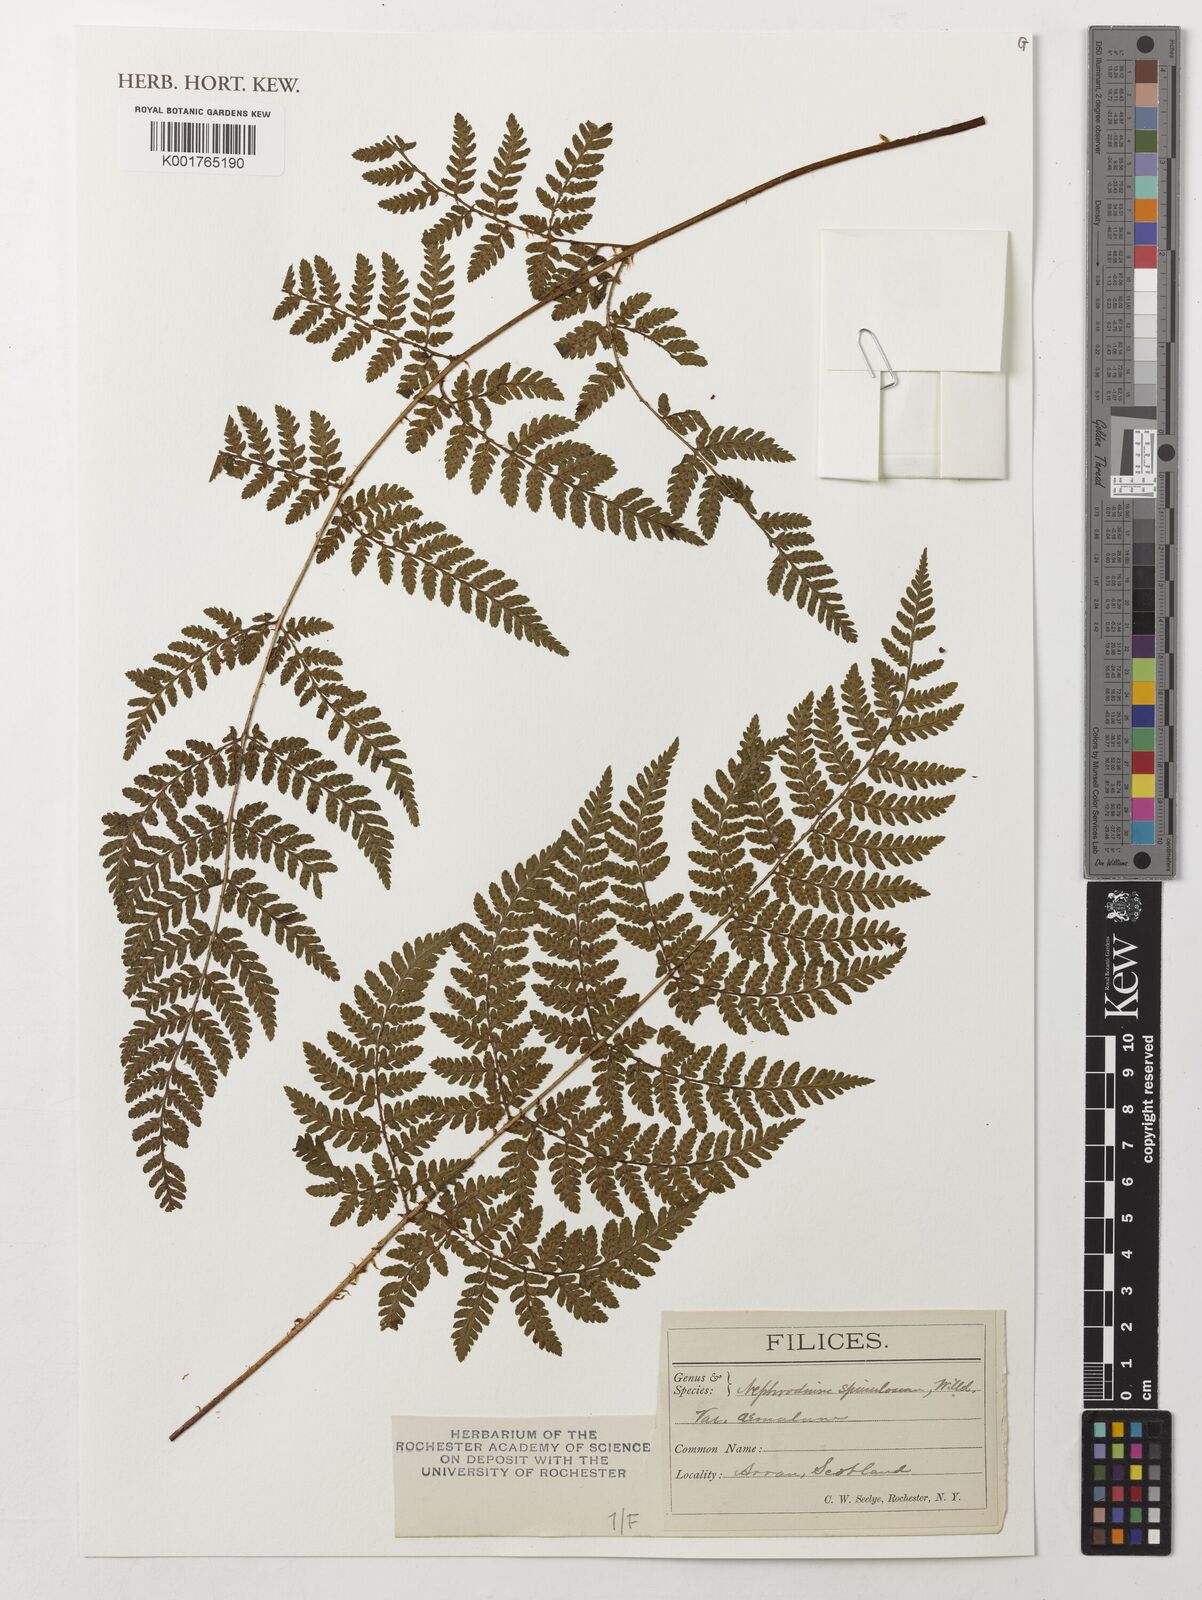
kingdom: Plantae
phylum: Tracheophyta
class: Polypodiopsida
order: Polypodiales
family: Dryopteridaceae
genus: Dryopteris
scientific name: Dryopteris carthusiana
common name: Narrow buckler-fern
